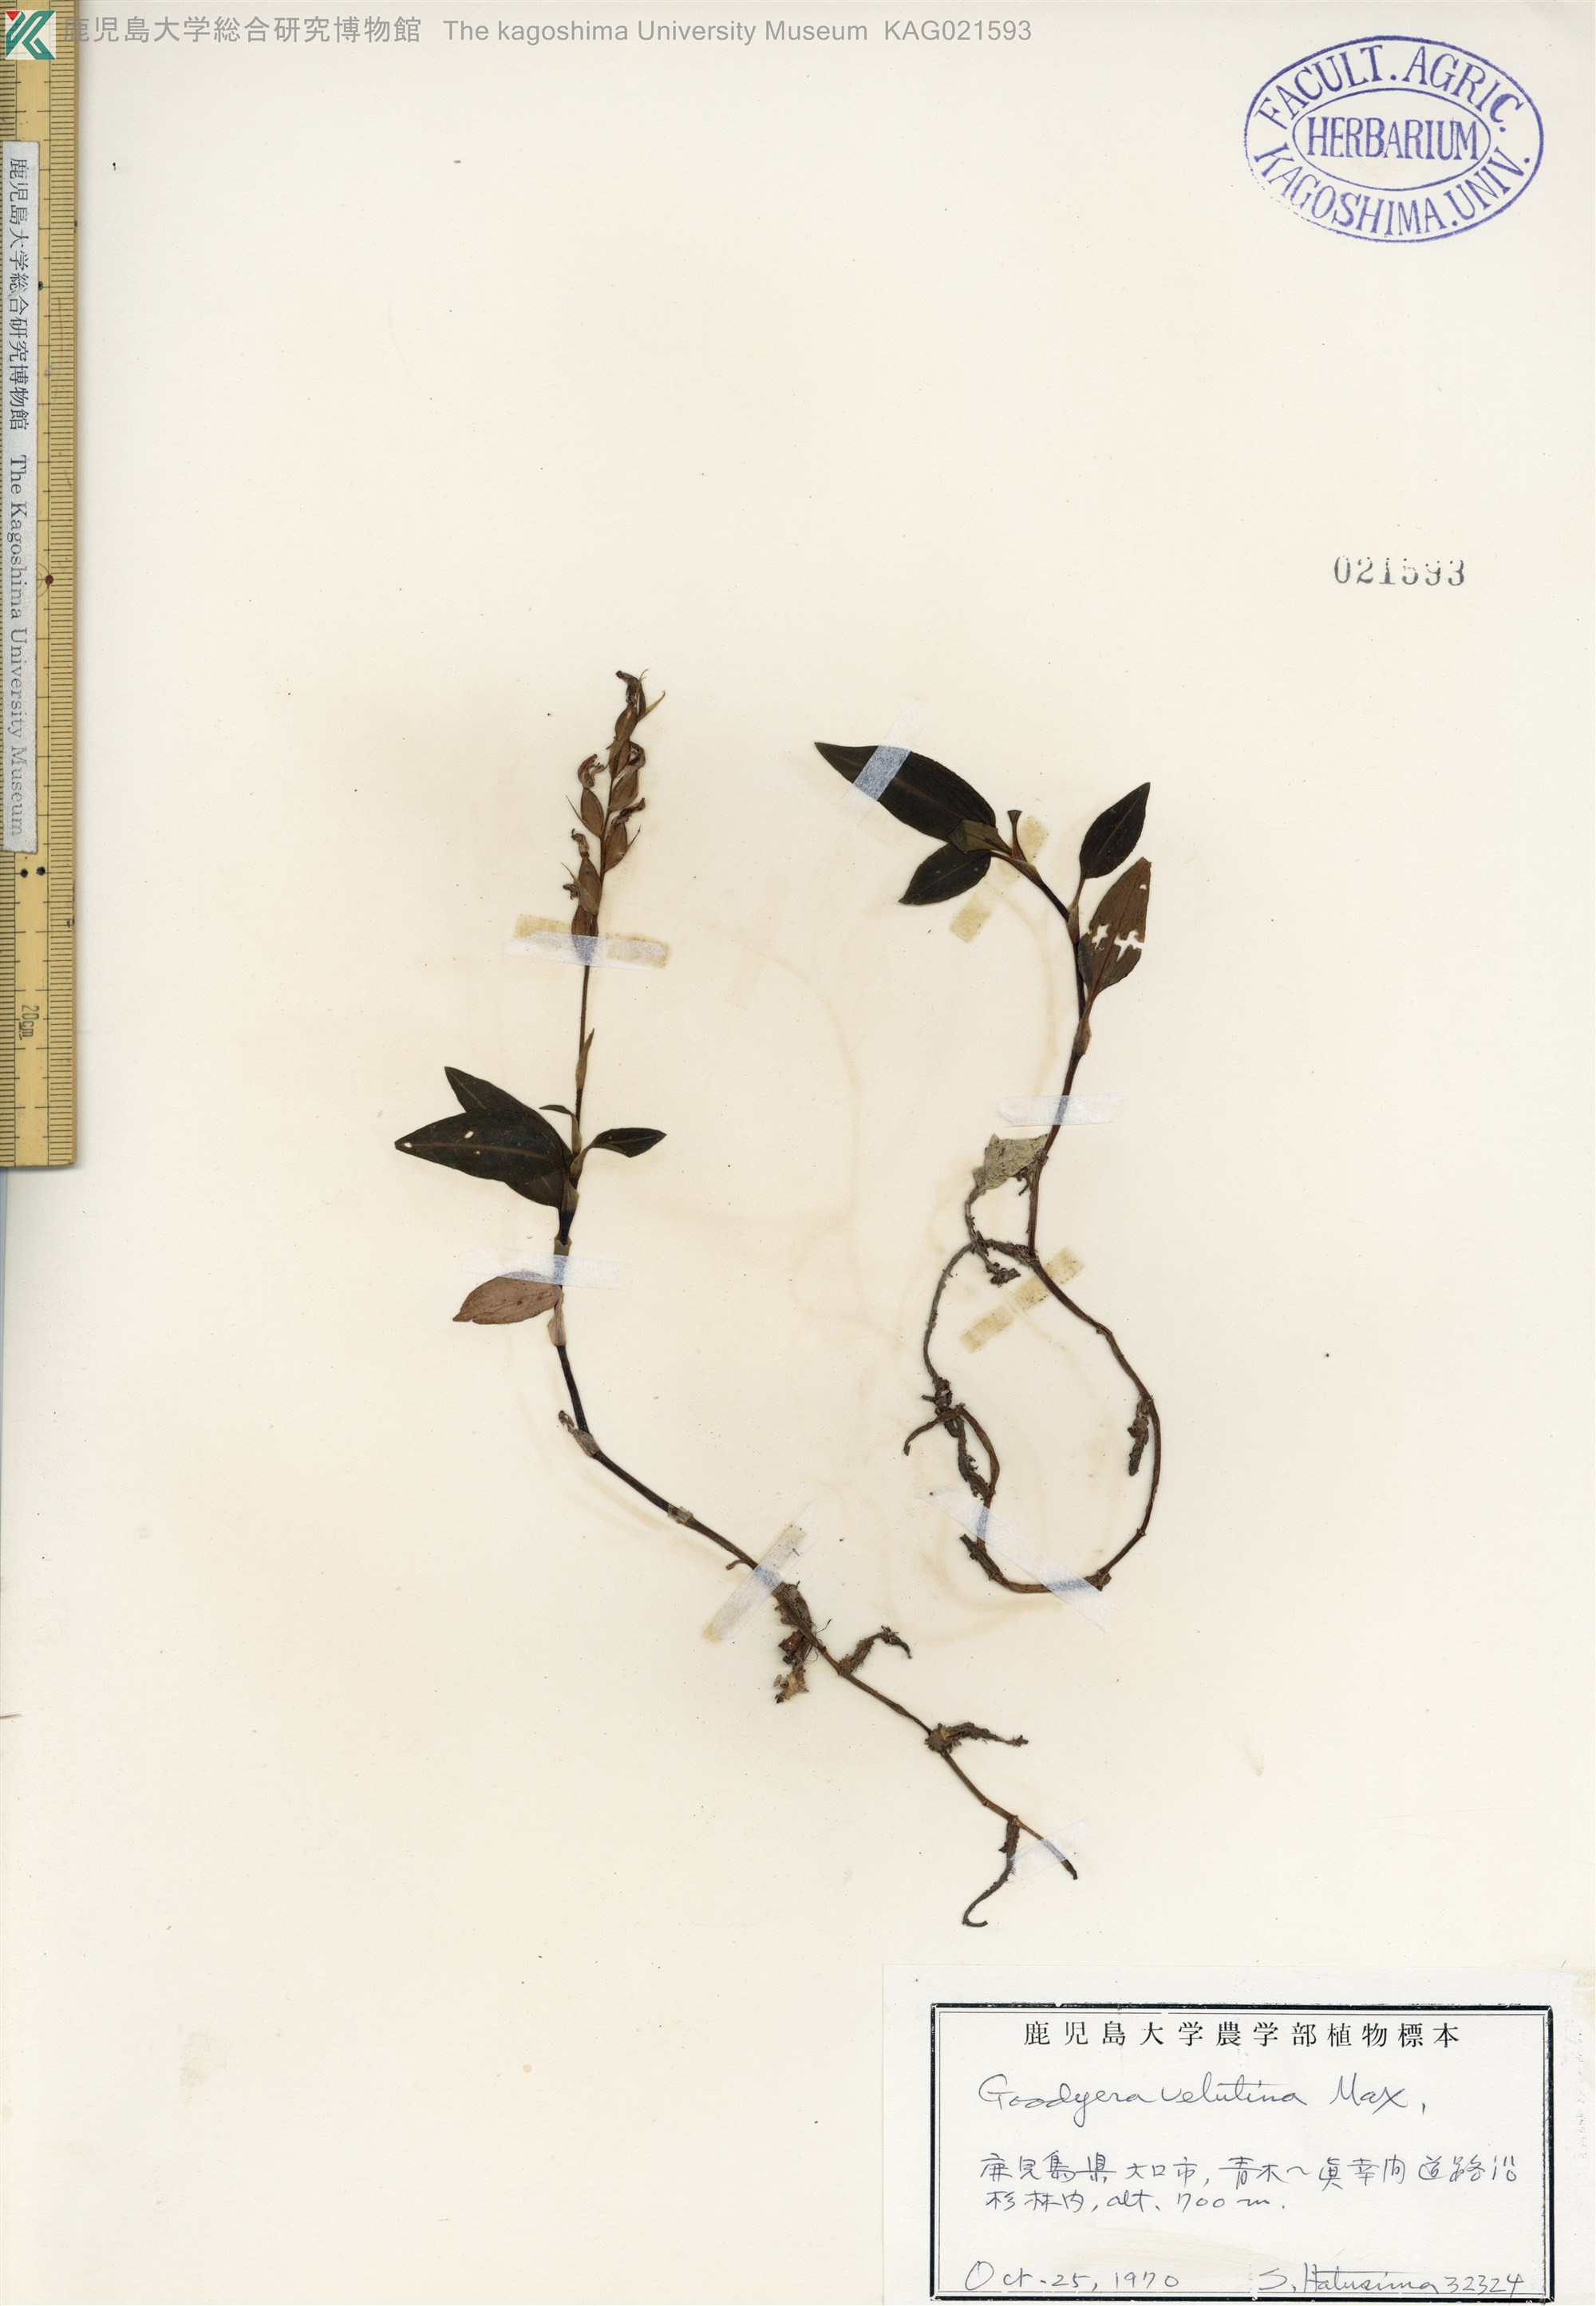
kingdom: Plantae
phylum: Tracheophyta
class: Liliopsida
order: Asparagales
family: Orchidaceae
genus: Goodyera
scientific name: Goodyera velutina
